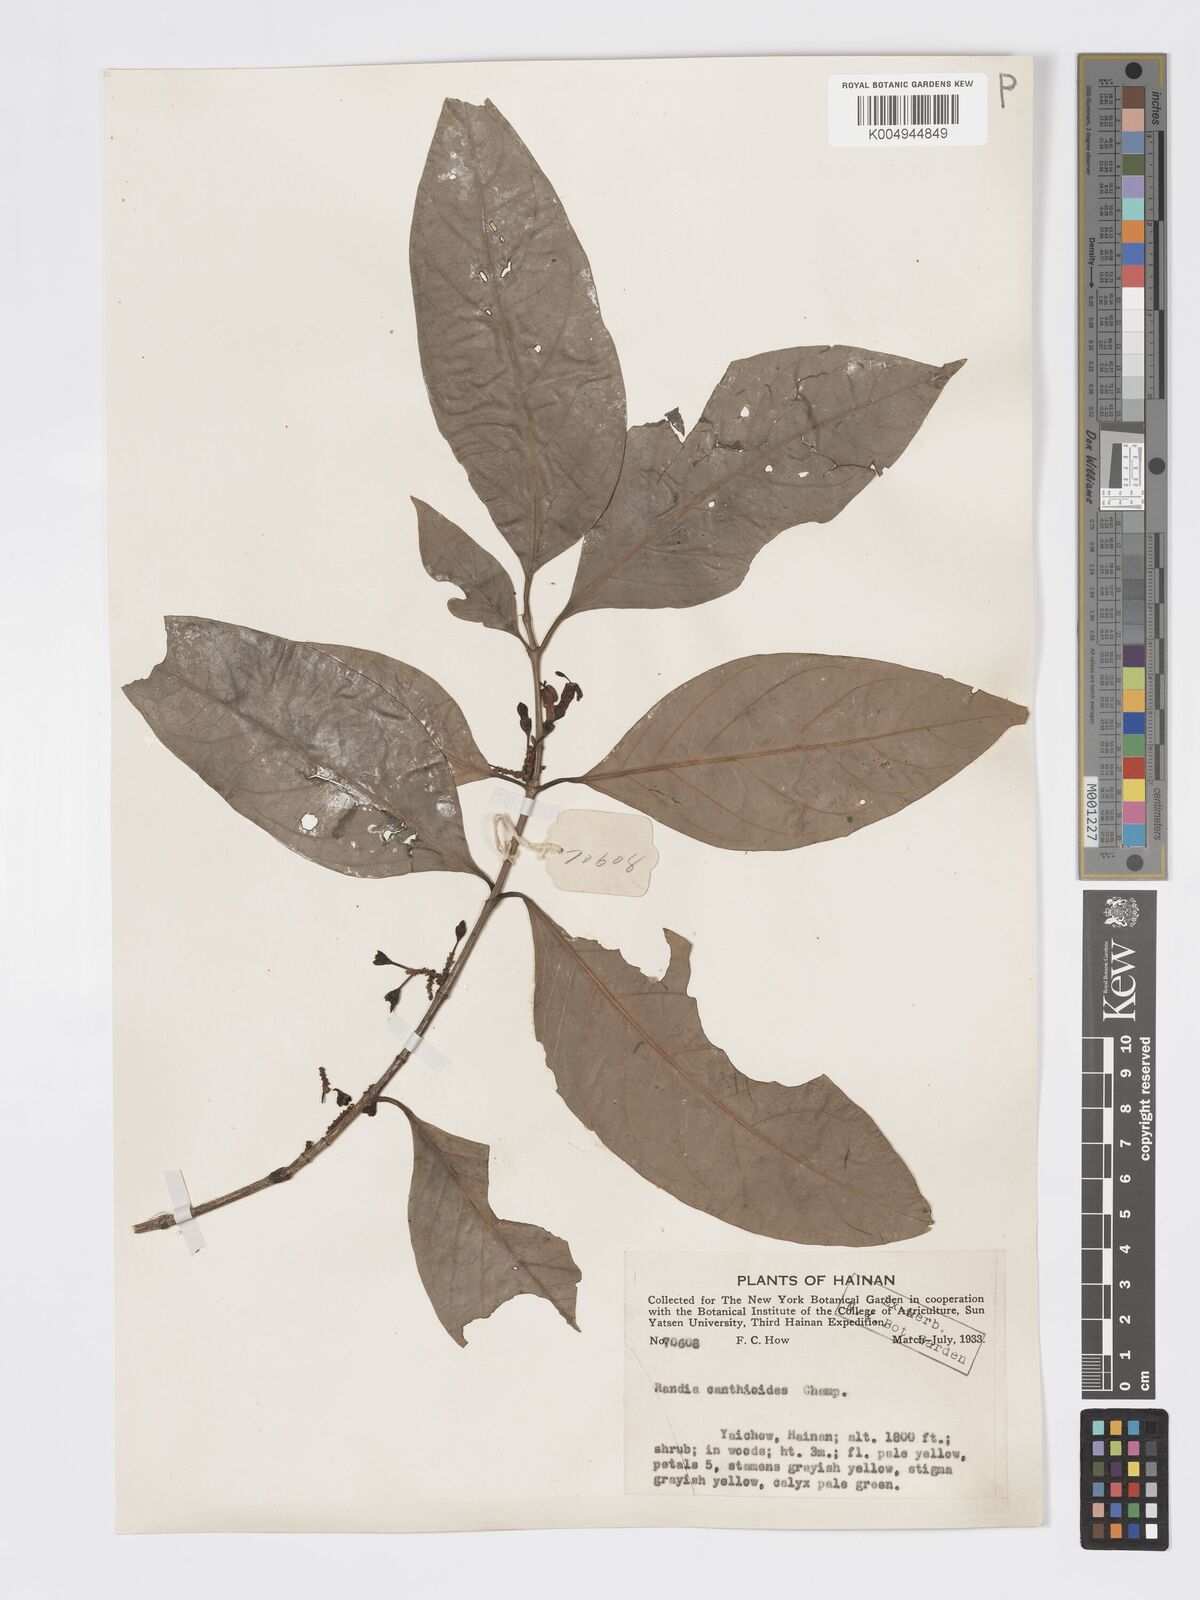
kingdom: Plantae
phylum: Tracheophyta
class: Magnoliopsida
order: Gentianales
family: Rubiaceae
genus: Aidia
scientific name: Aidia canthioides
